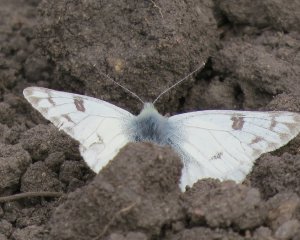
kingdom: Animalia
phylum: Arthropoda
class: Insecta
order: Lepidoptera
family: Pieridae
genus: Pontia
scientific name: Pontia protodice
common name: Checkered White
